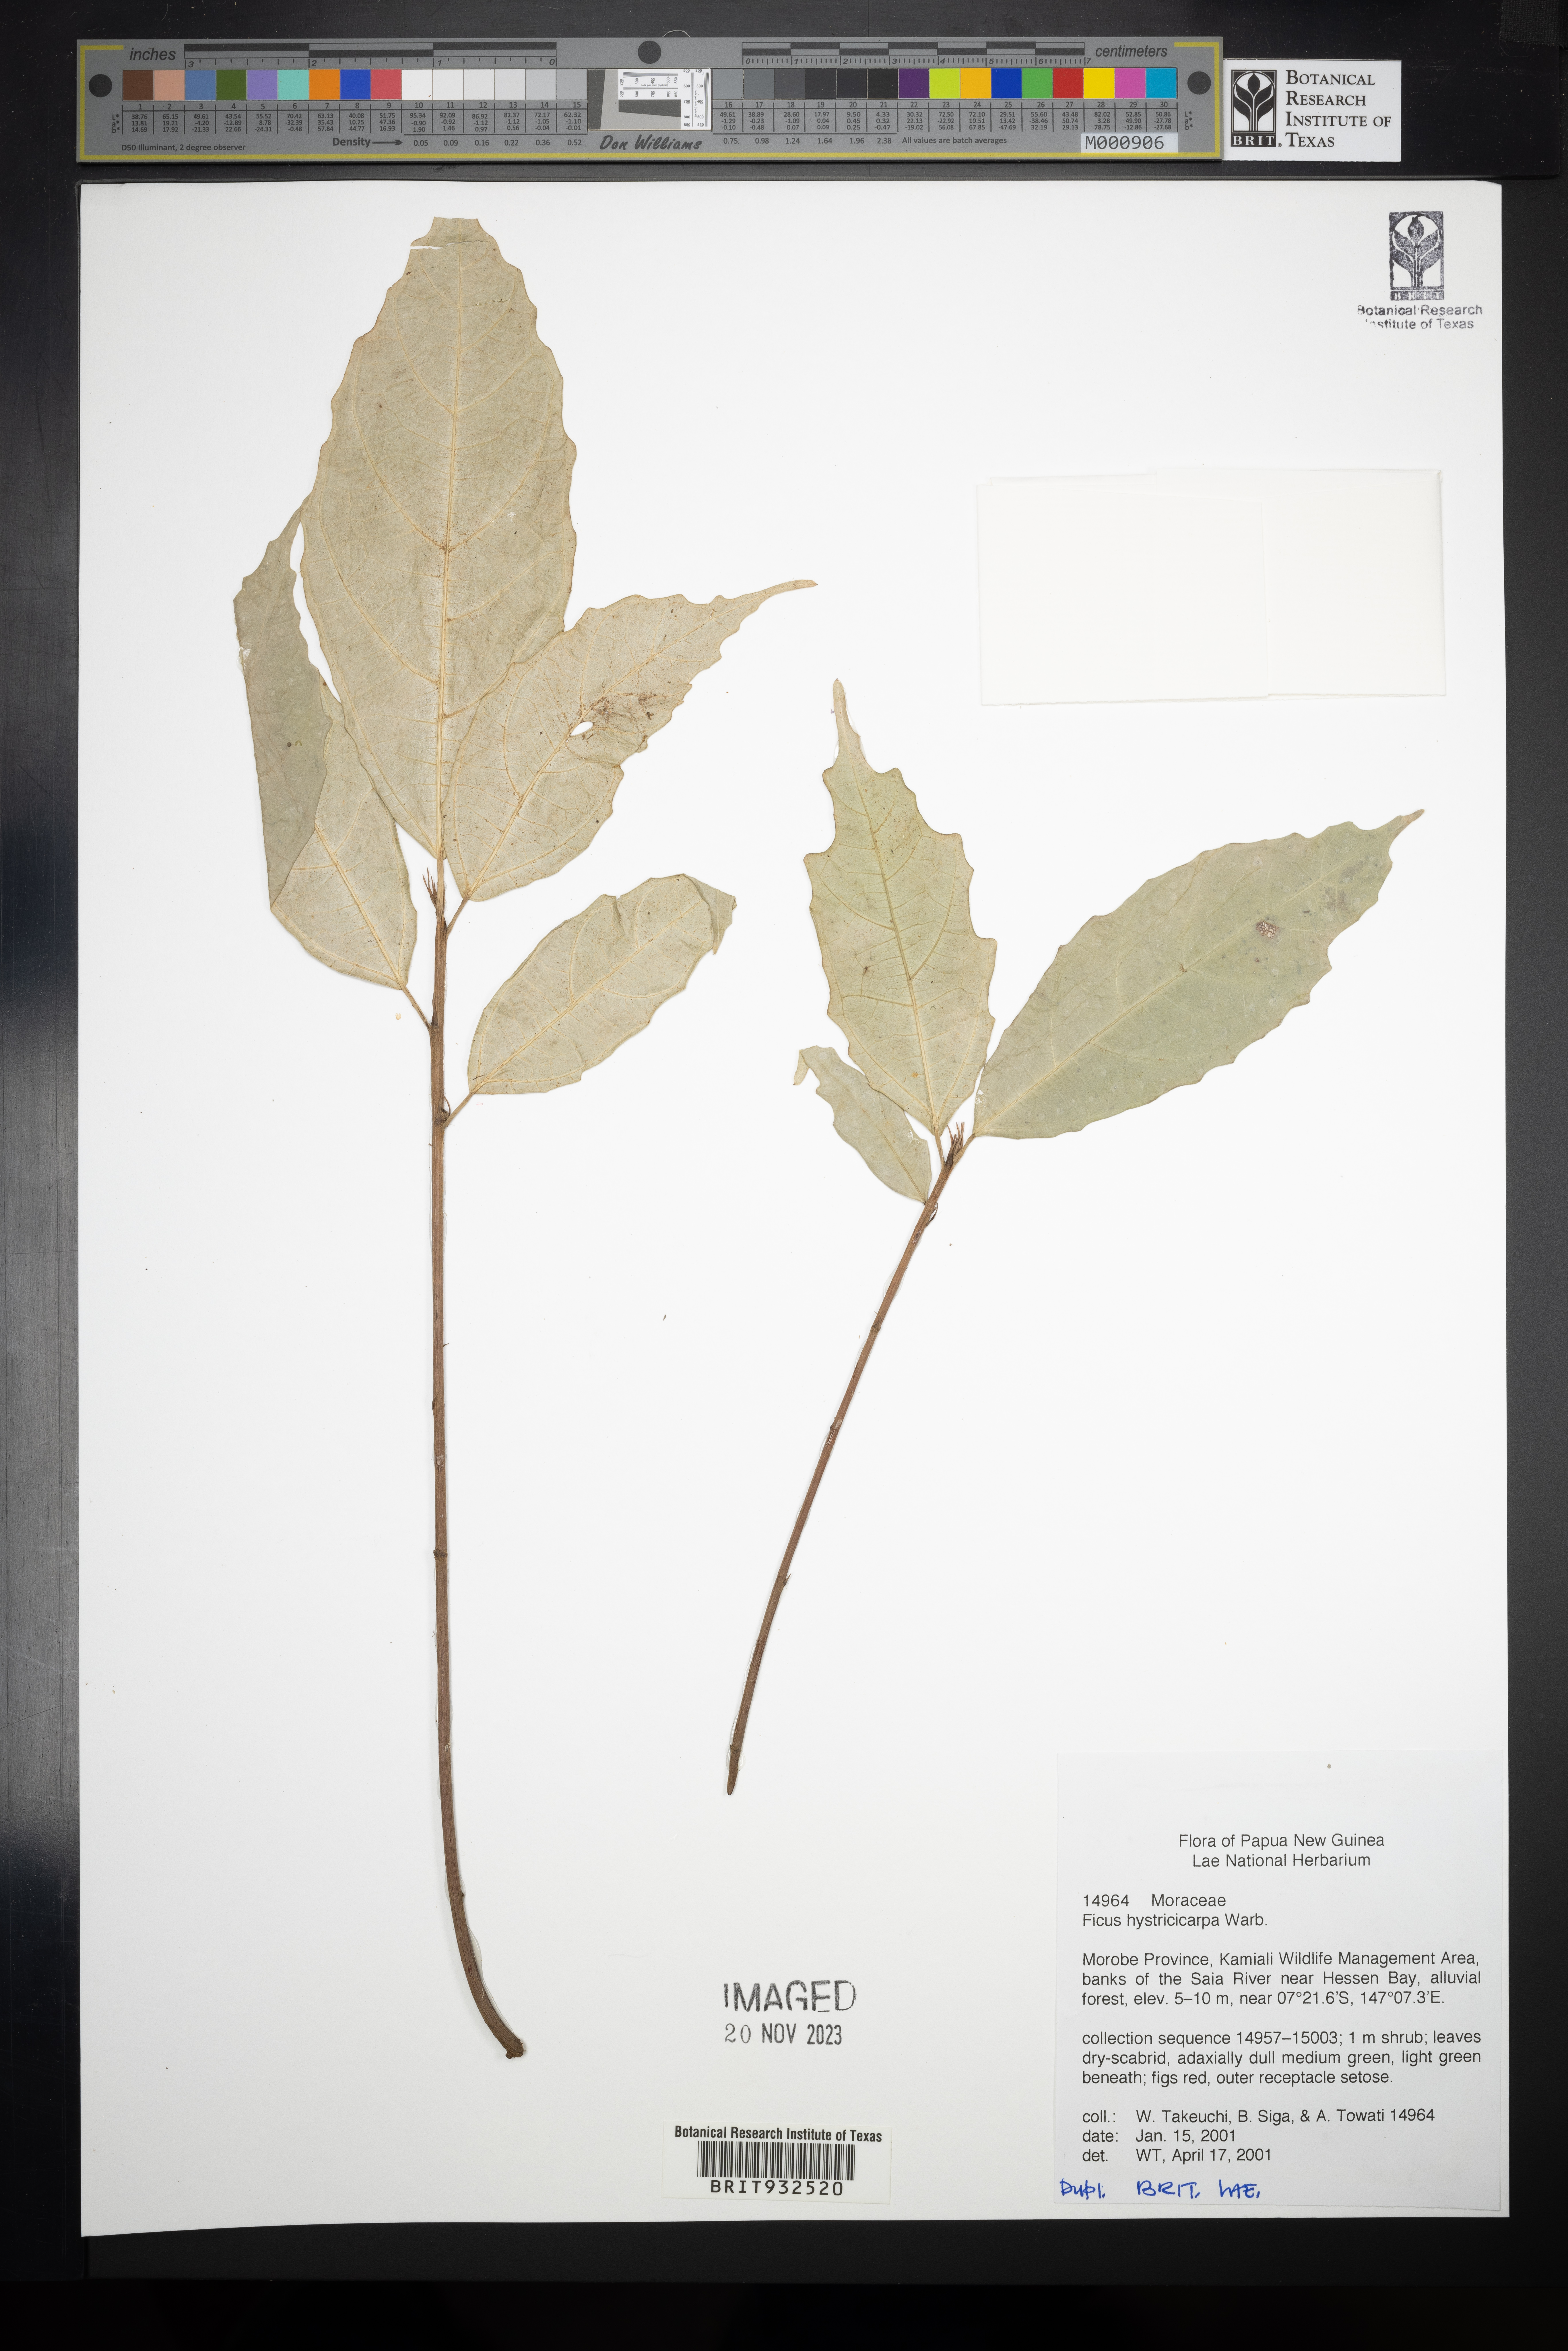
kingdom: Plantae
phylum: Tracheophyta
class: Magnoliopsida
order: Rosales
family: Moraceae
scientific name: Moraceae
